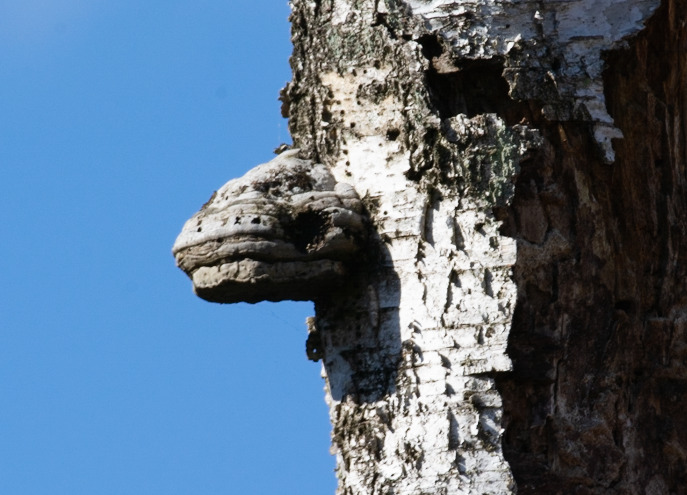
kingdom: Fungi
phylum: Basidiomycota
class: Agaricomycetes
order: Polyporales
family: Polyporaceae
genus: Fomes
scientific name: Fomes fomentarius
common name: Tøndersvamp
